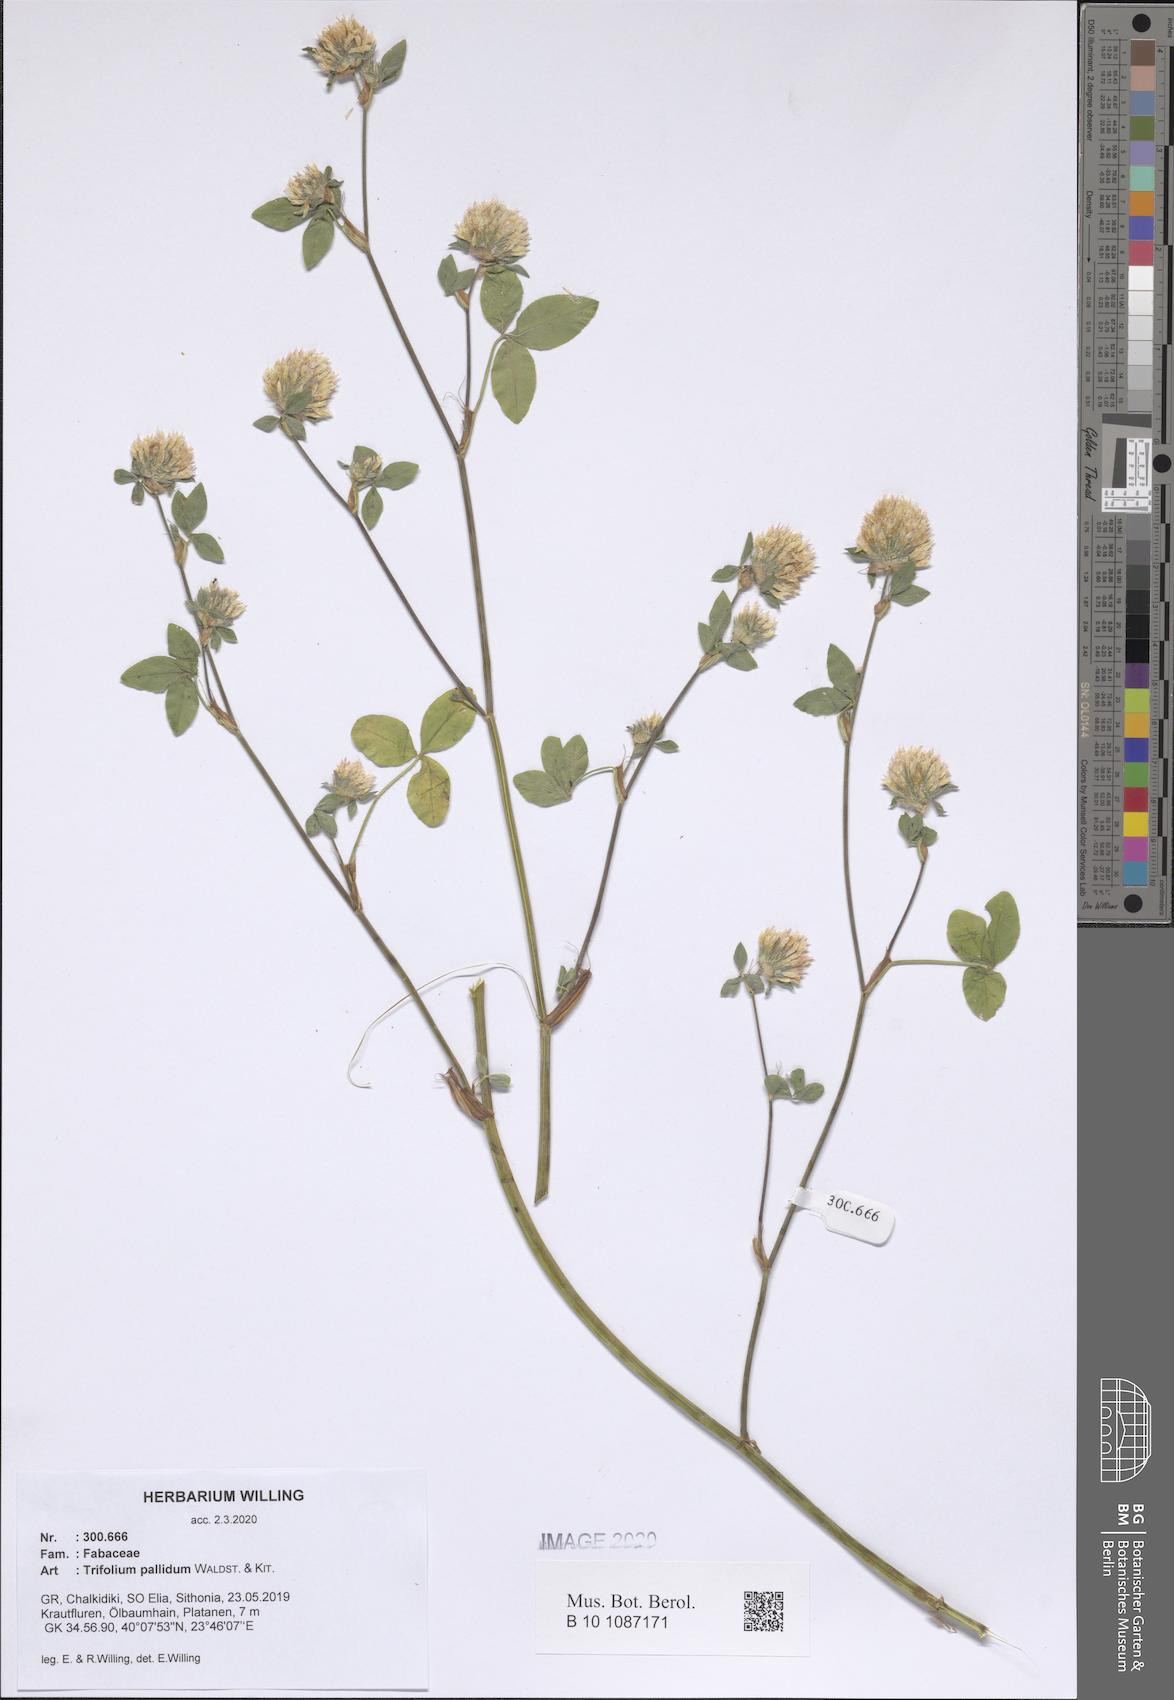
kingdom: Plantae
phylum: Tracheophyta
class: Magnoliopsida
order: Fabales
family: Fabaceae
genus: Trifolium
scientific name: Trifolium pallidum
